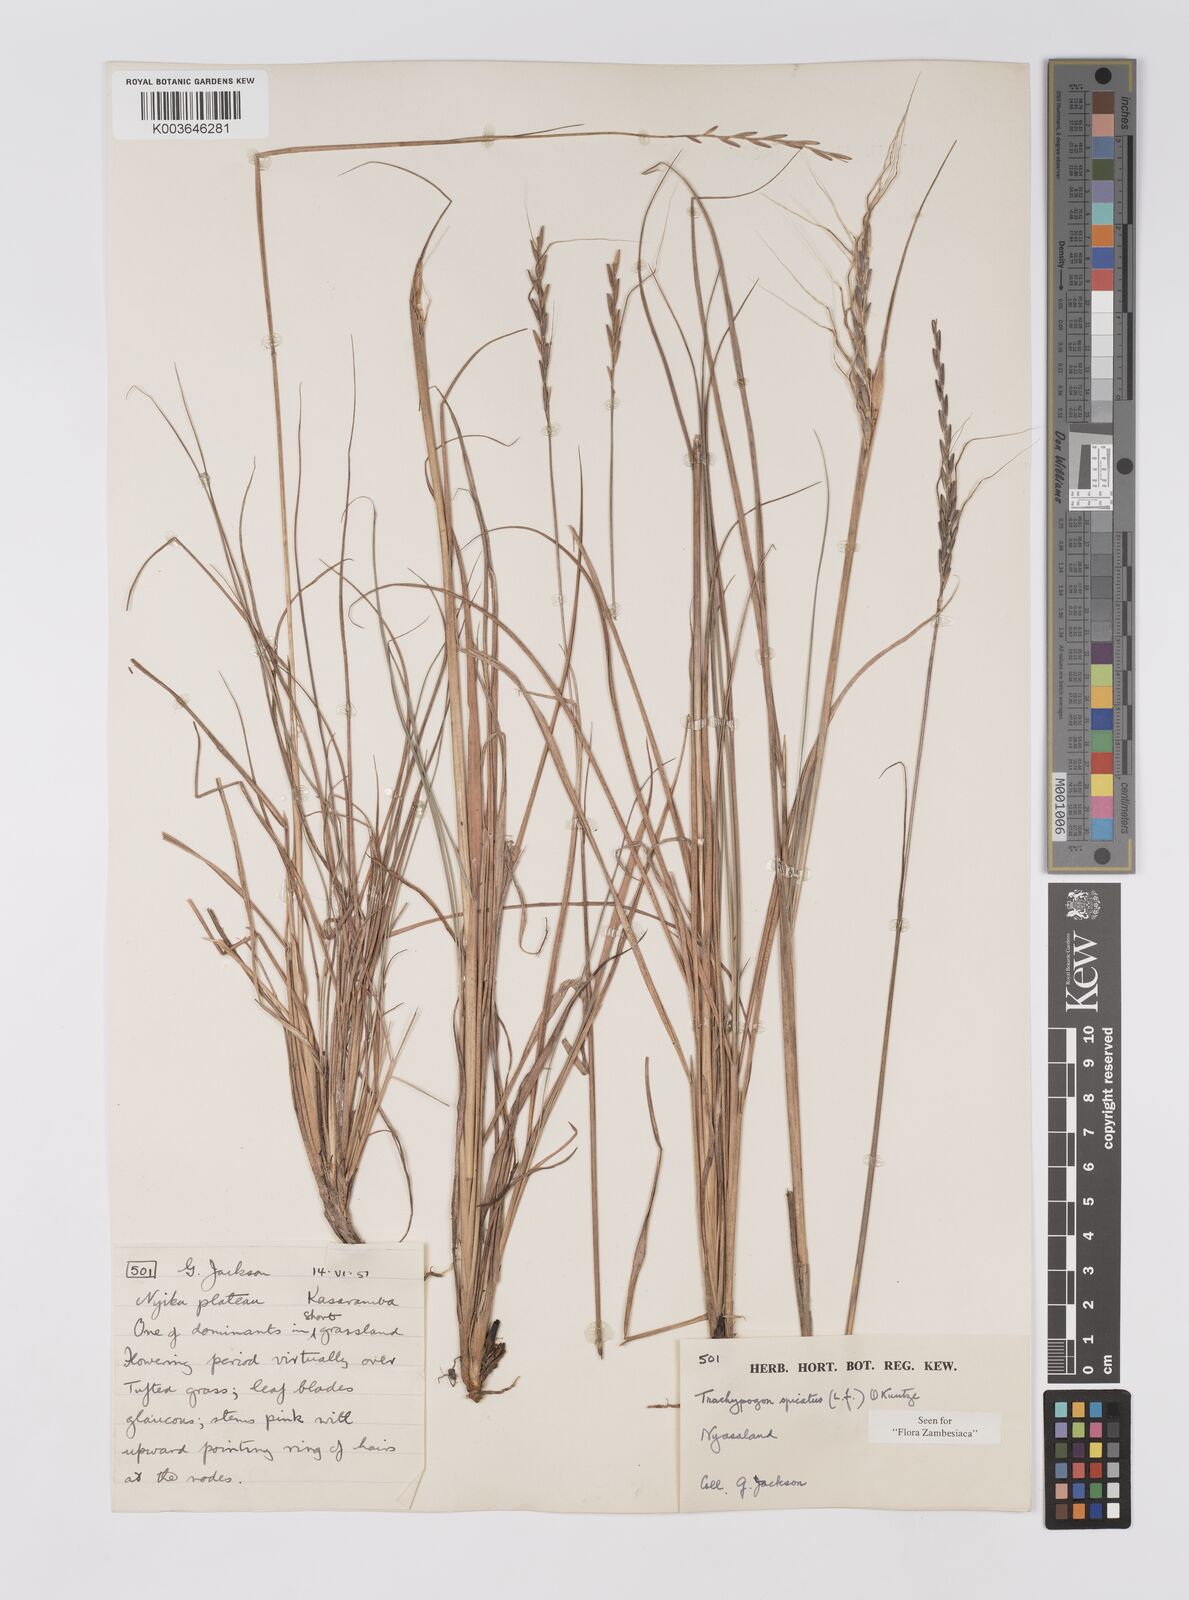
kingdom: Plantae
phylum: Tracheophyta
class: Liliopsida
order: Poales
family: Poaceae
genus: Trachypogon
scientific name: Trachypogon spicatus
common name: Crinkle-awn
